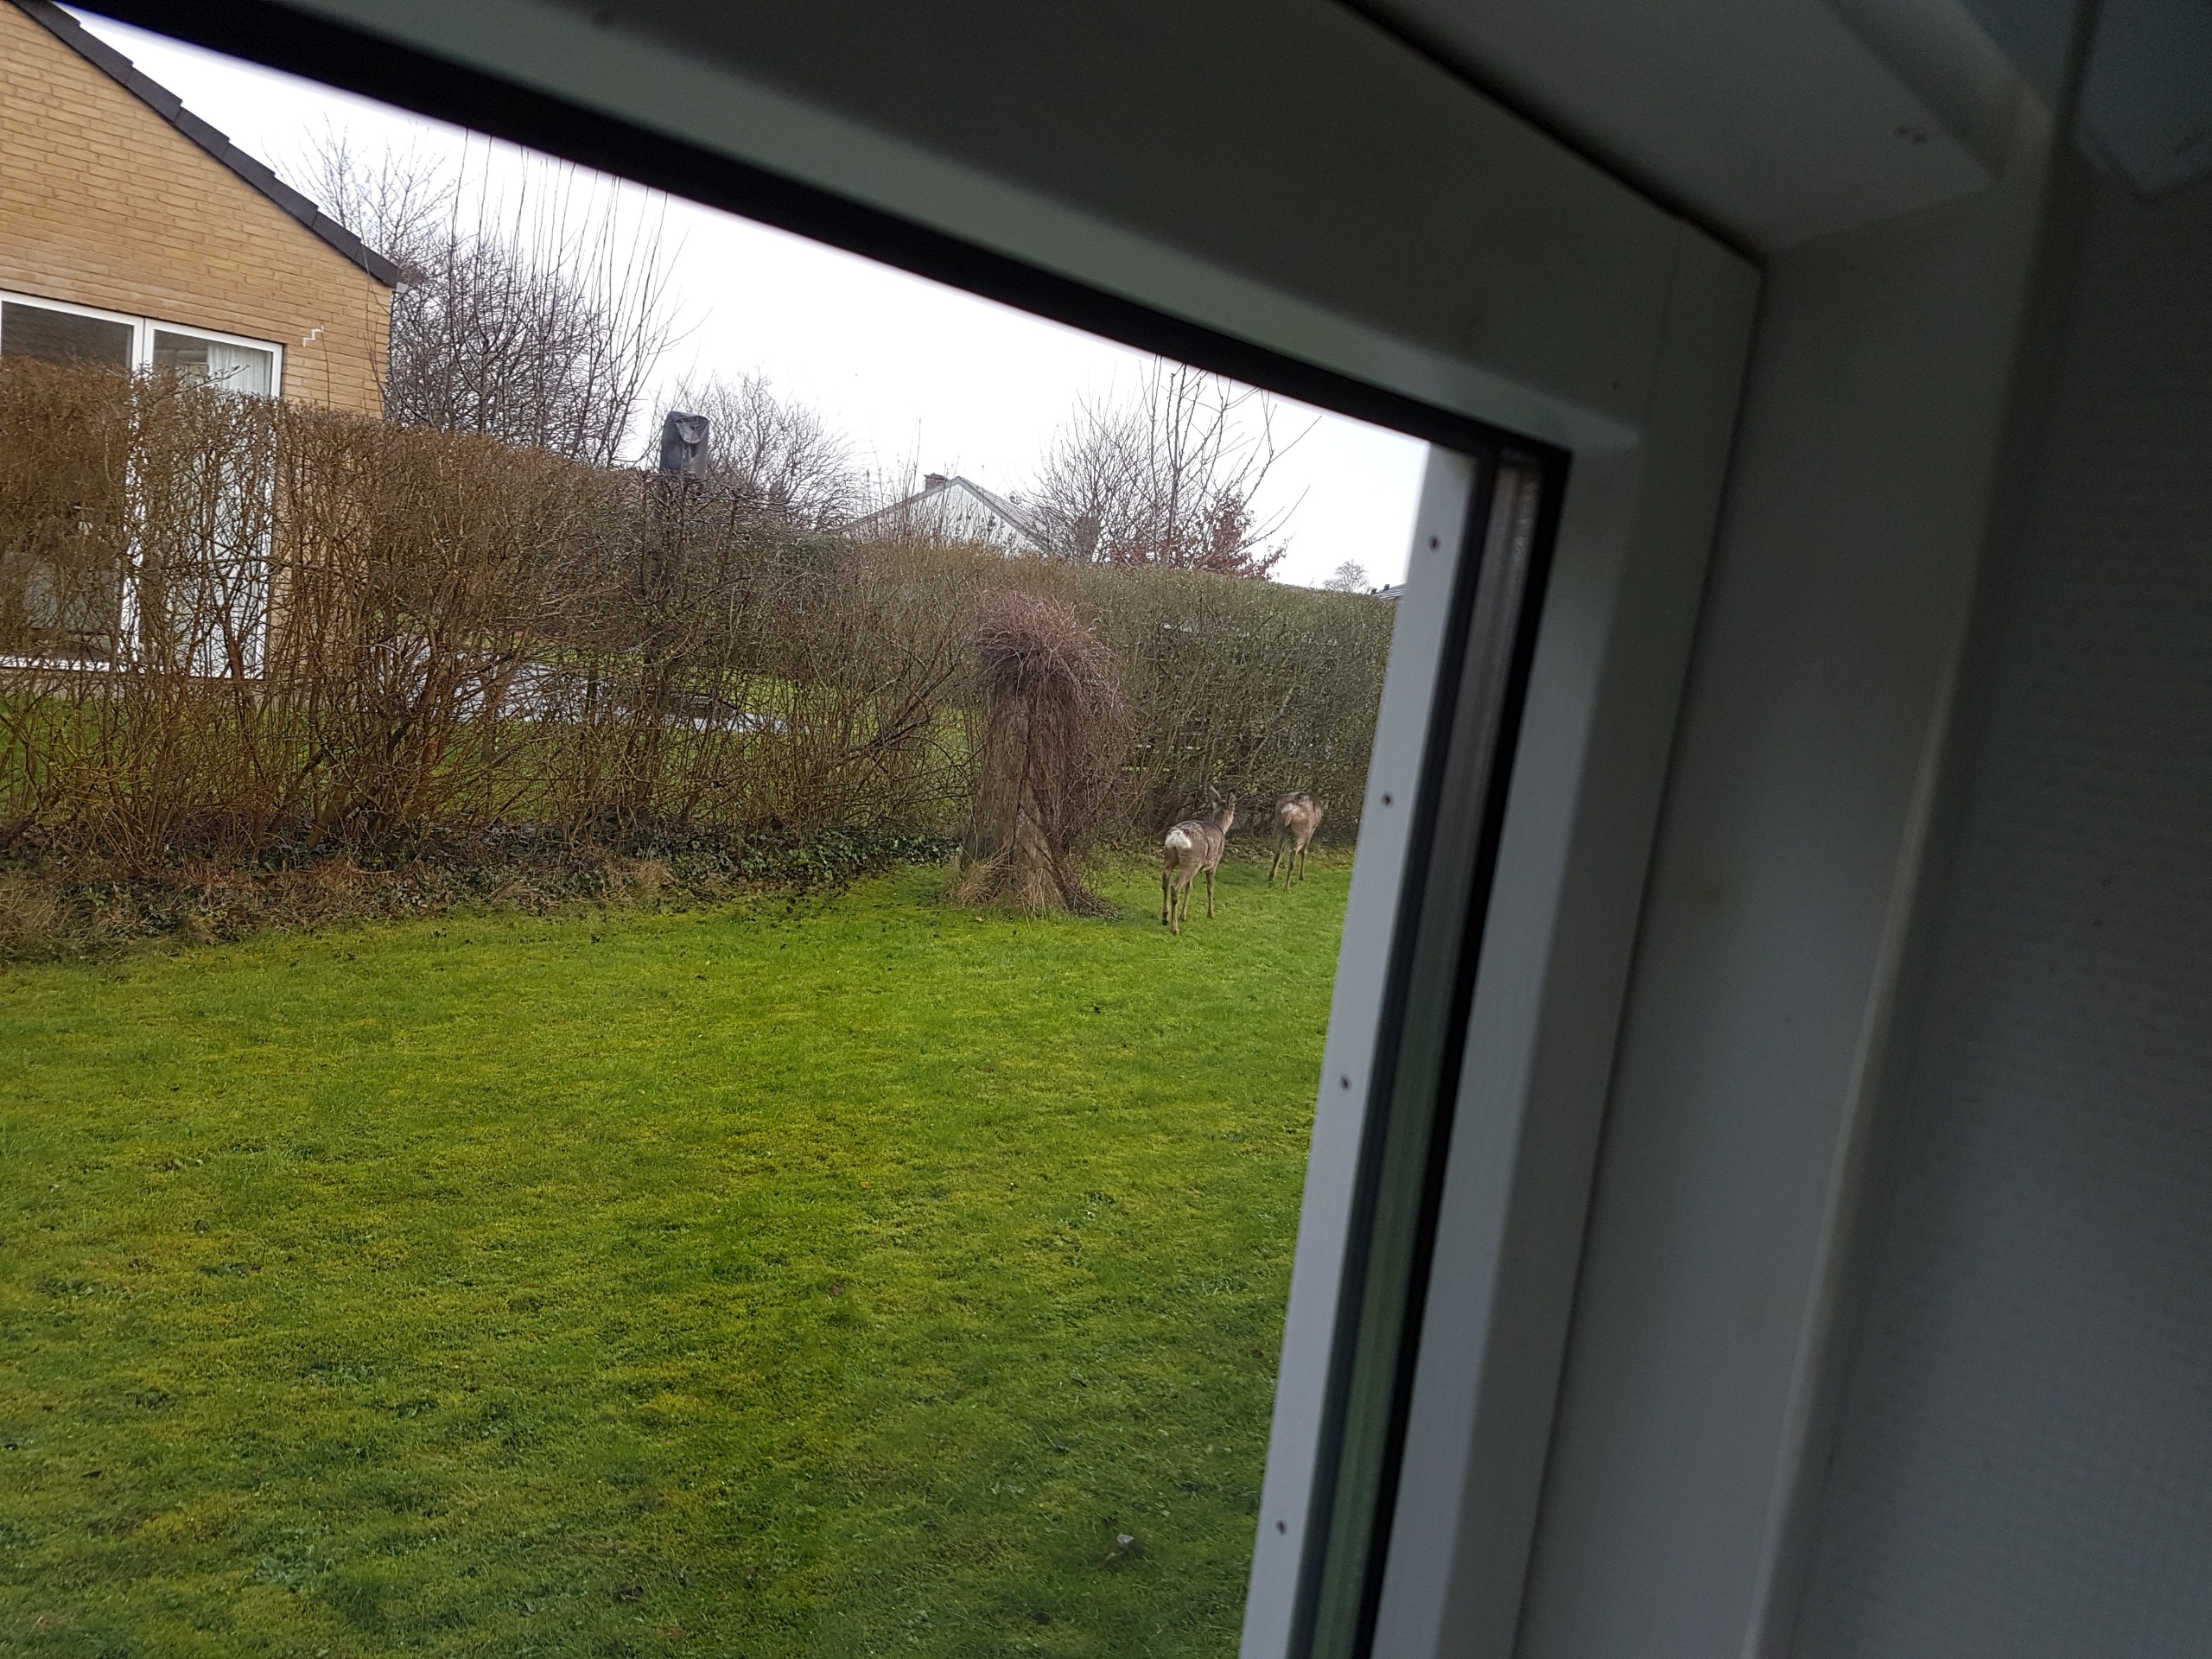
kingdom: Animalia
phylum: Chordata
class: Mammalia
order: Artiodactyla
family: Cervidae
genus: Capreolus
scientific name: Capreolus capreolus
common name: Rådyr
